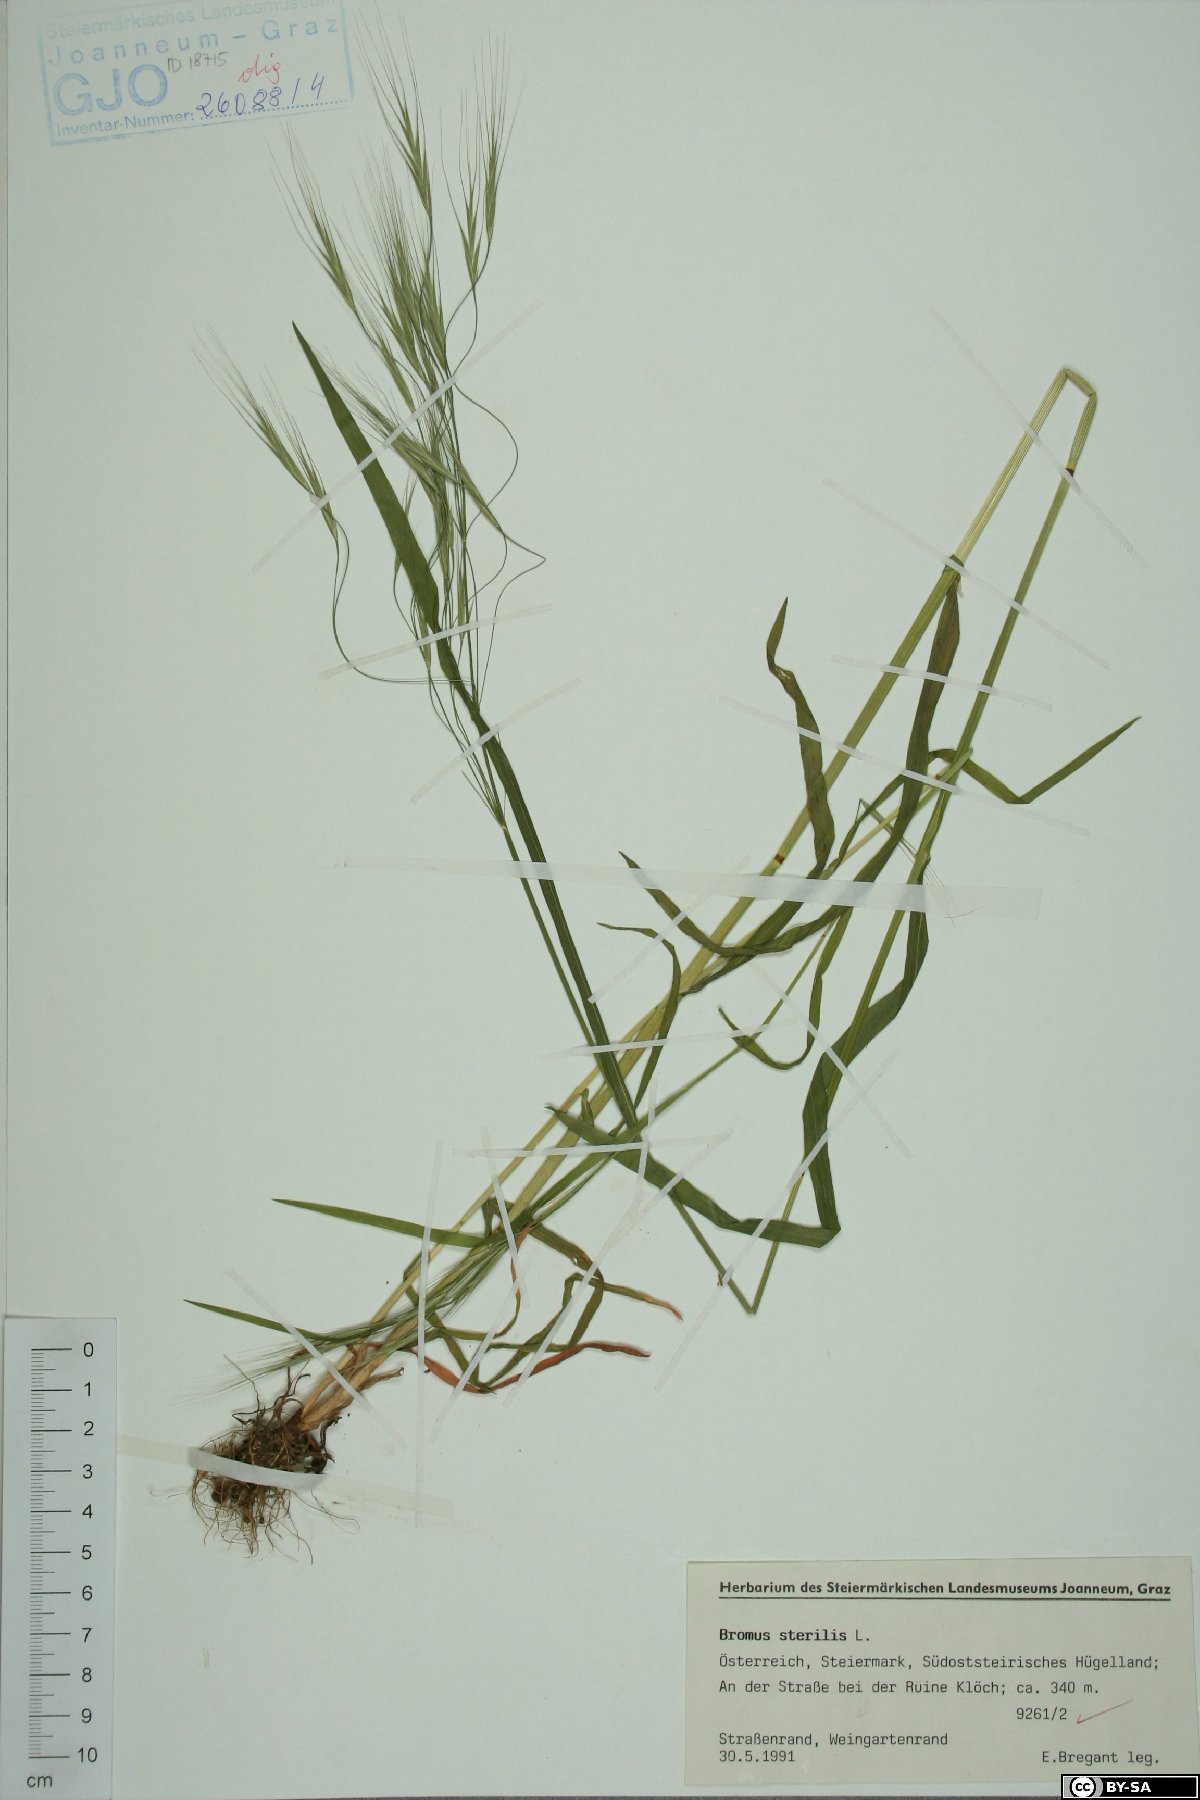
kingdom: Plantae
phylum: Tracheophyta
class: Liliopsida
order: Poales
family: Poaceae
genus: Bromus
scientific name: Bromus sterilis
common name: Poverty brome
